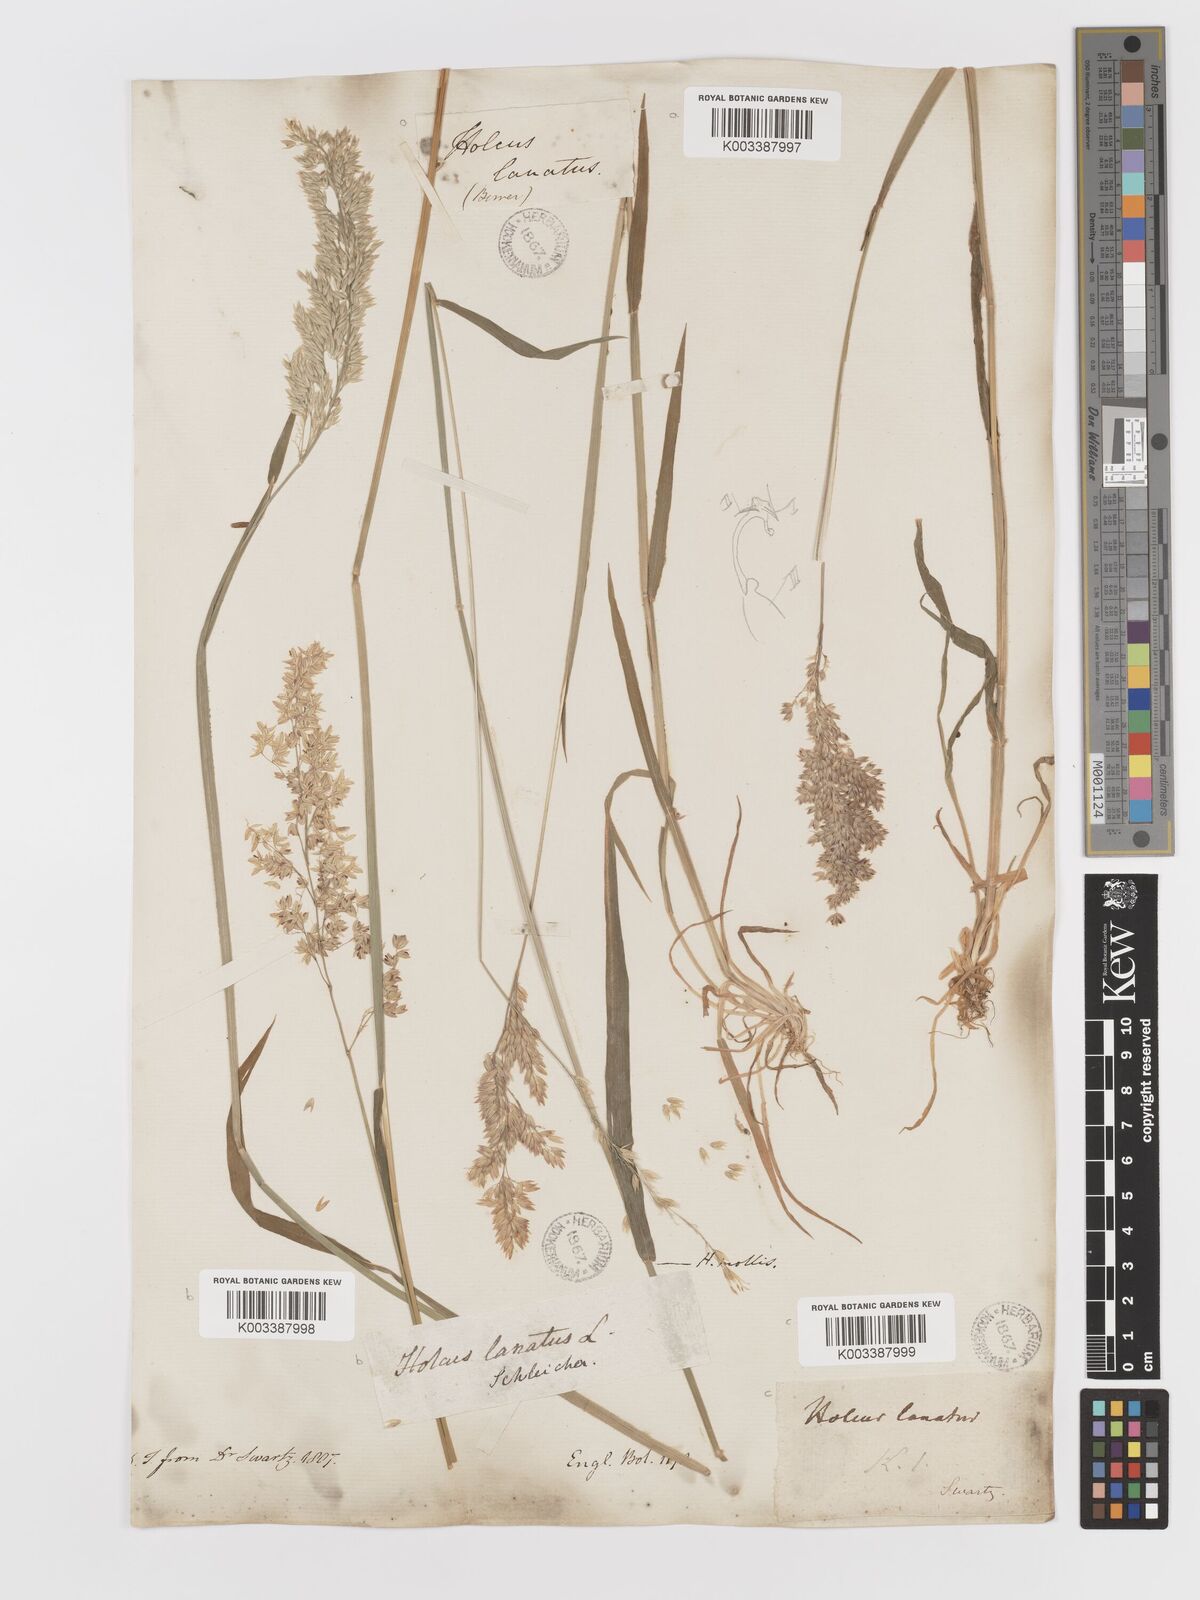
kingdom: Plantae
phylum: Tracheophyta
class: Liliopsida
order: Poales
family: Poaceae
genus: Holcus
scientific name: Holcus lanatus
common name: Yorkshire-fog
